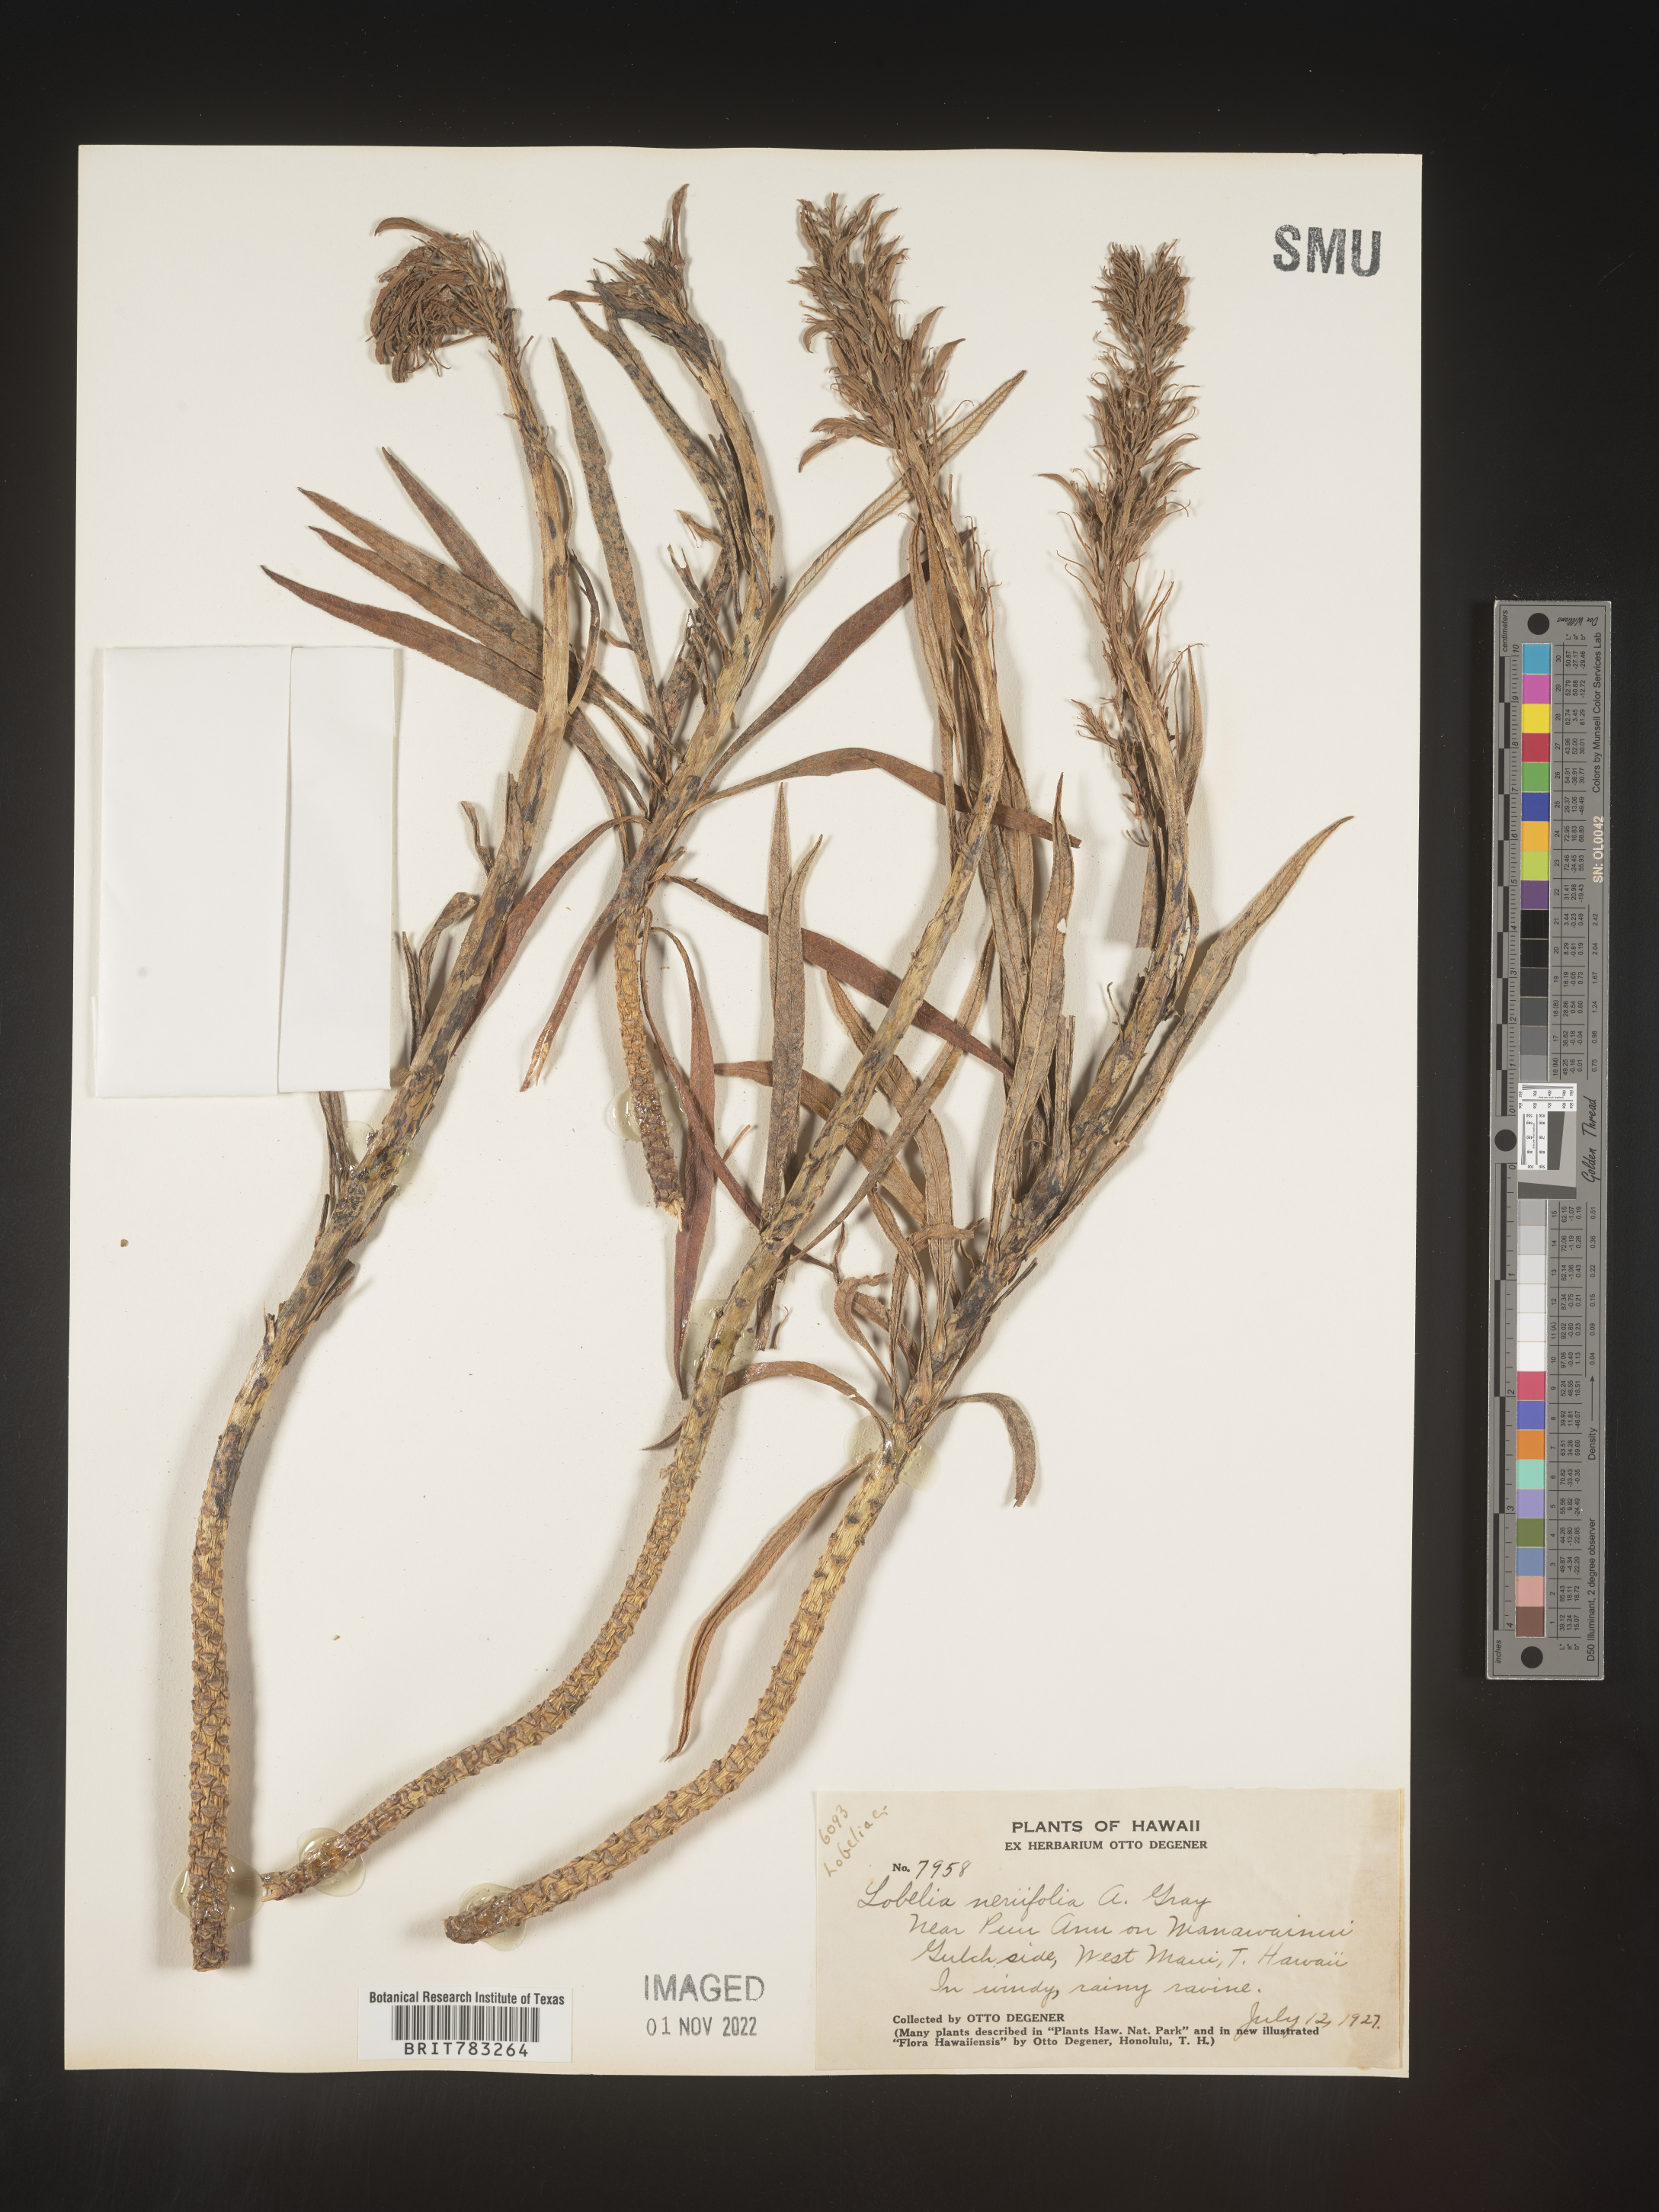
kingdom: Plantae
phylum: Tracheophyta
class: Magnoliopsida
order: Asterales
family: Campanulaceae
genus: Lobelia
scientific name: Lobelia
